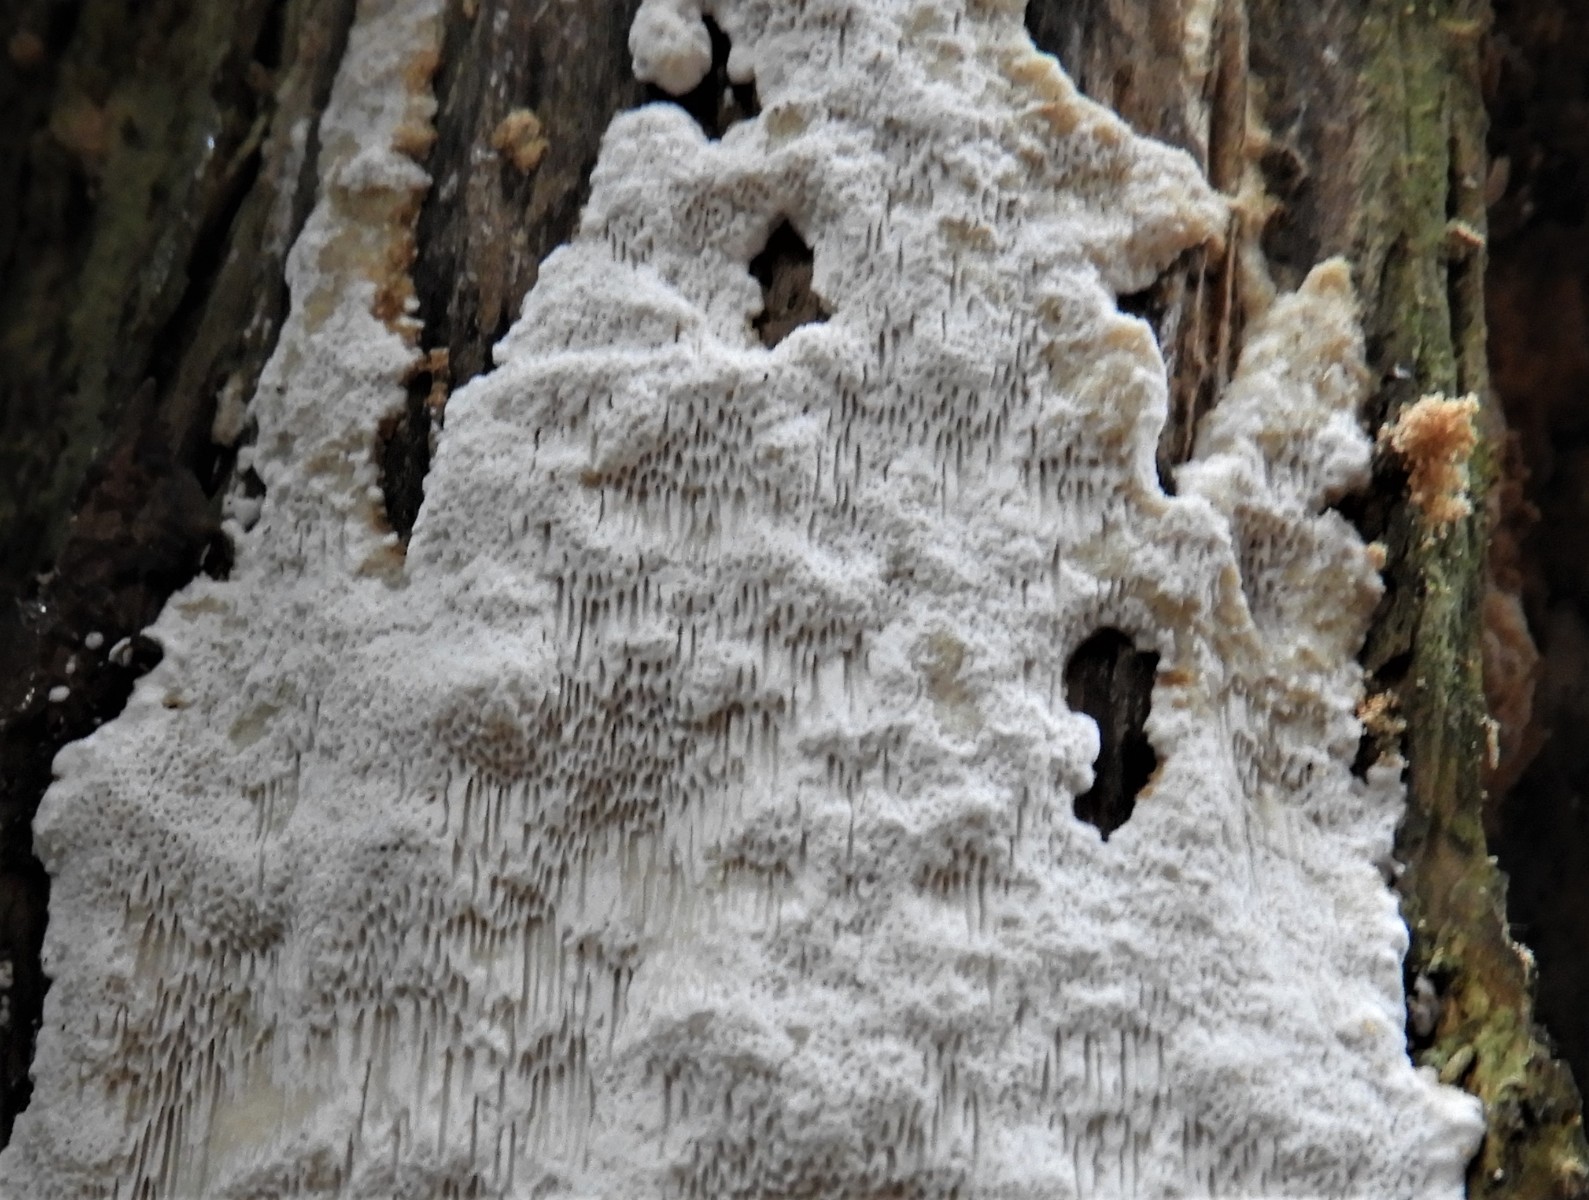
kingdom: Fungi
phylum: Basidiomycota
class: Agaricomycetes
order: Polyporales
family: Fomitopsidaceae
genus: Antrodia
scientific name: Antrodia
